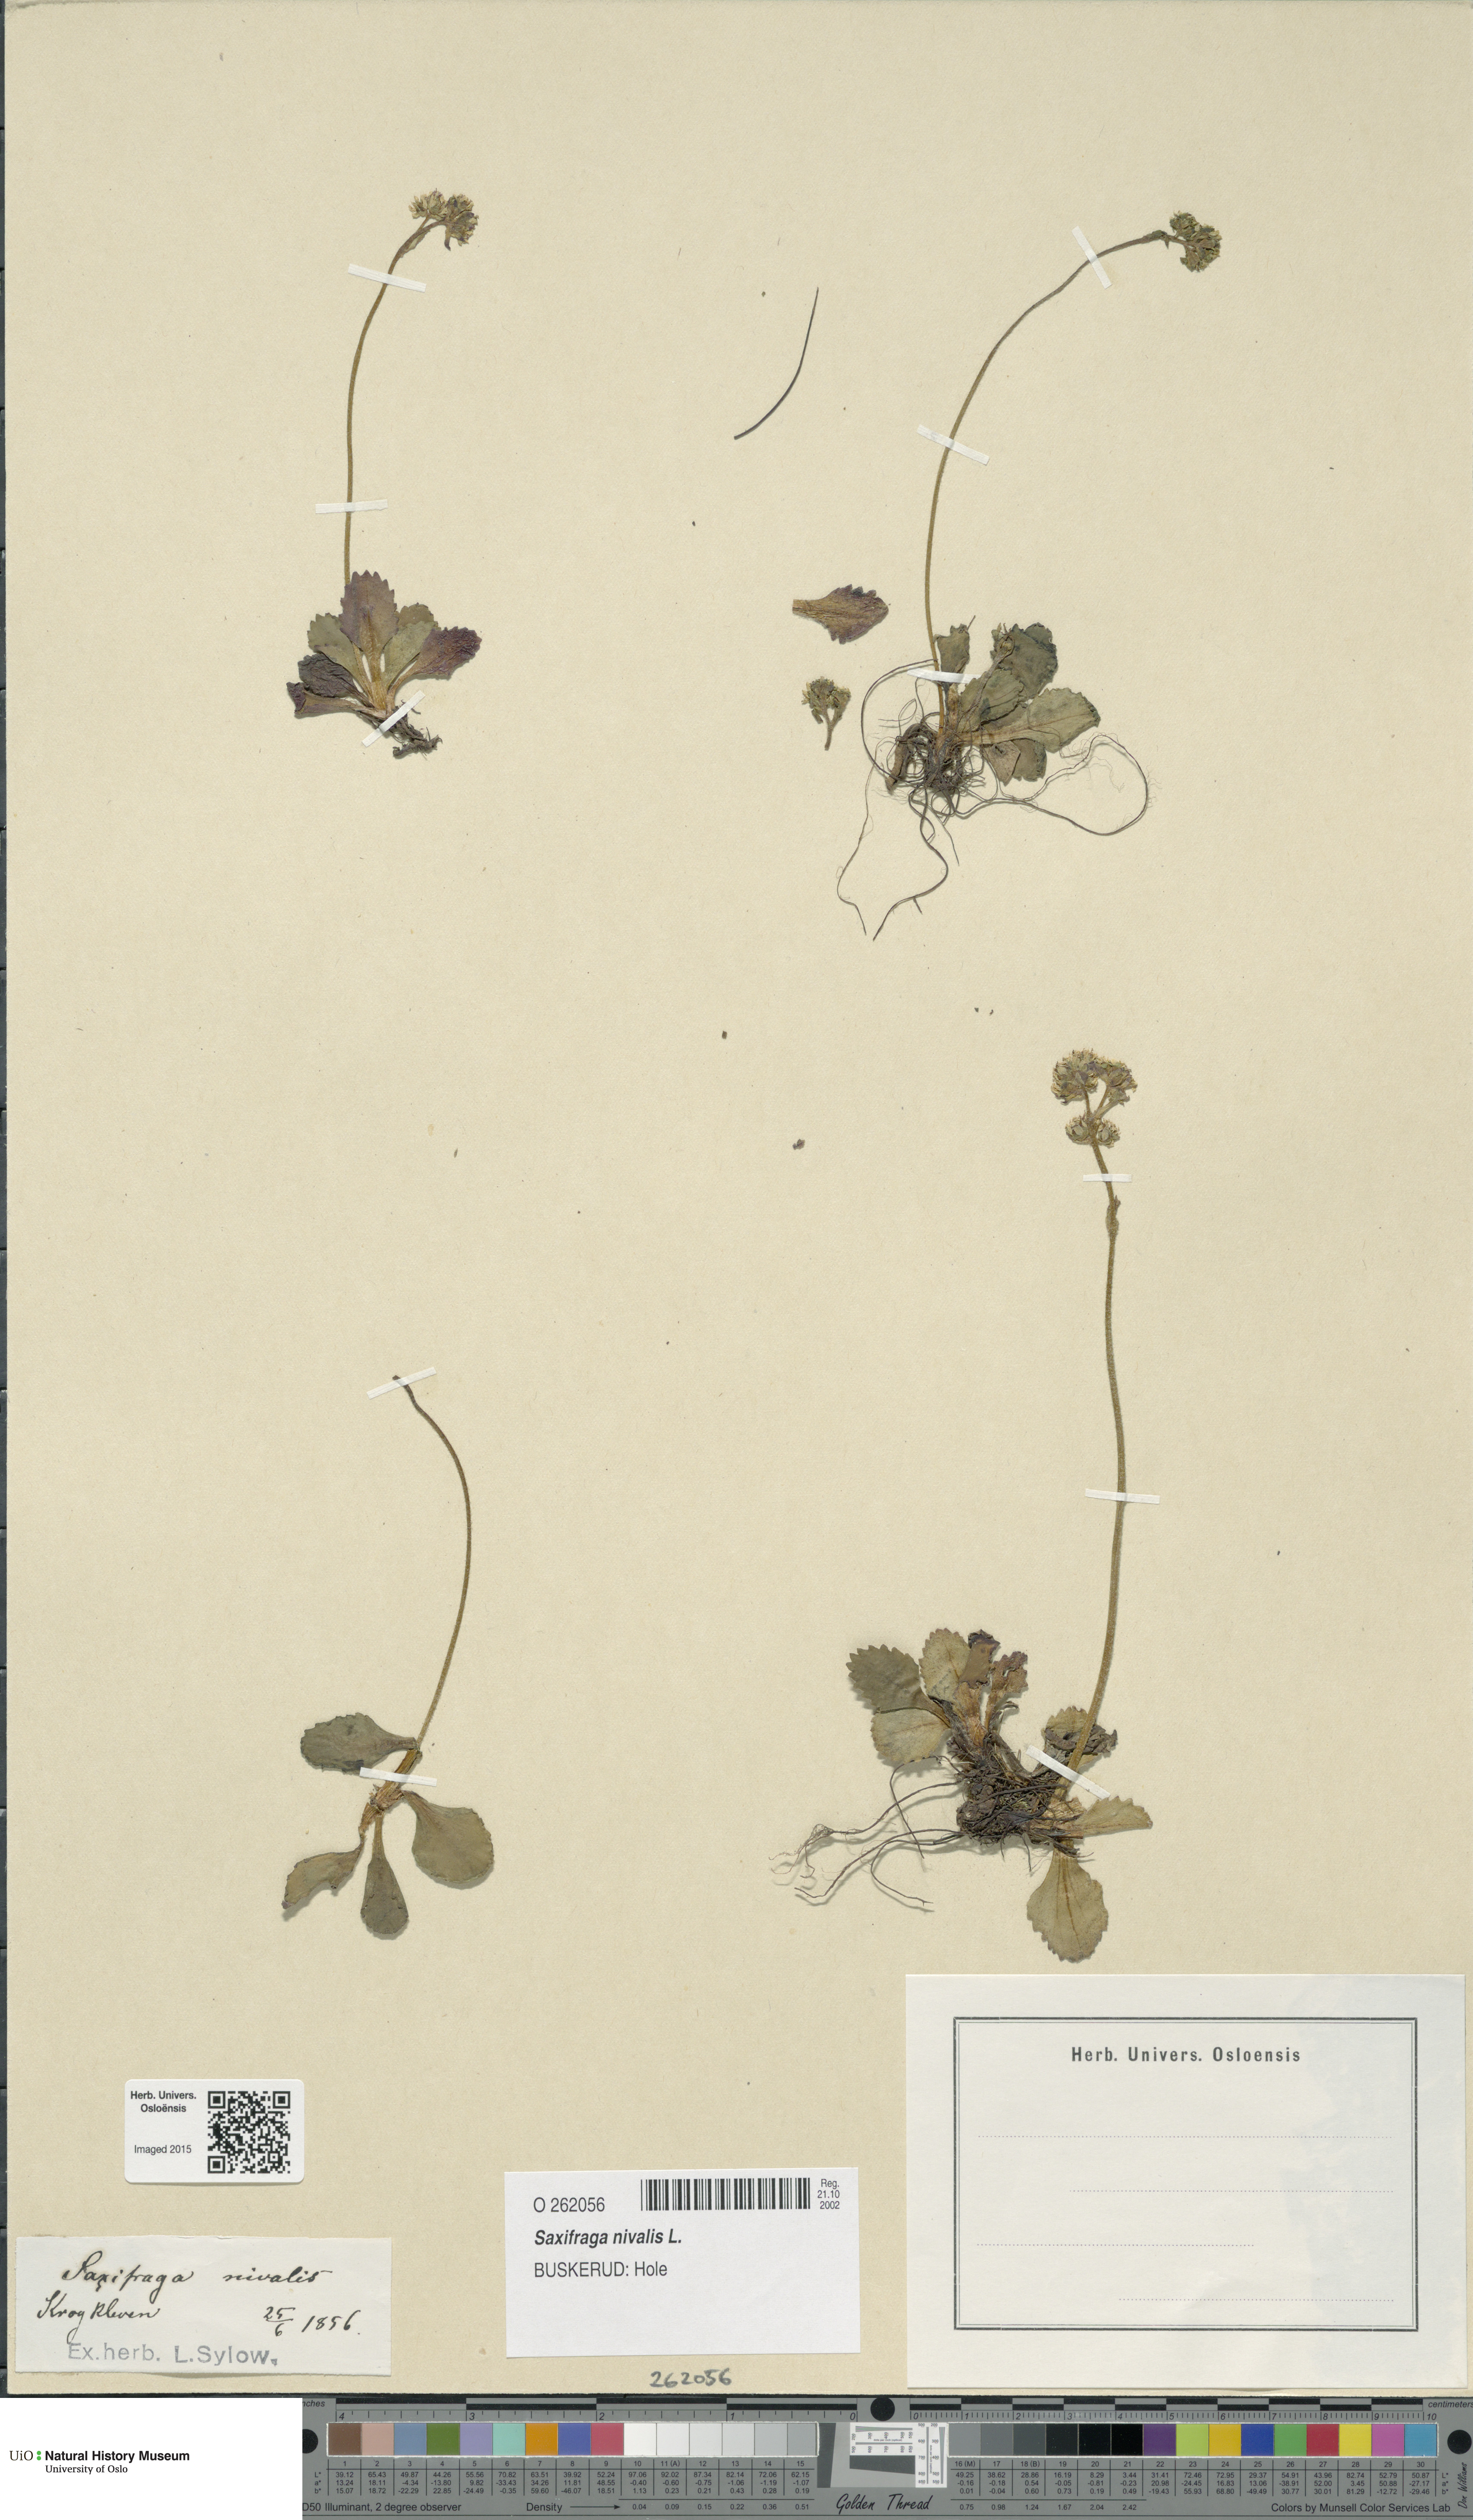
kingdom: Plantae
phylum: Tracheophyta
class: Magnoliopsida
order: Saxifragales
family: Saxifragaceae
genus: Micranthes
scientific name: Micranthes nivalis
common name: Alpine saxifrage
